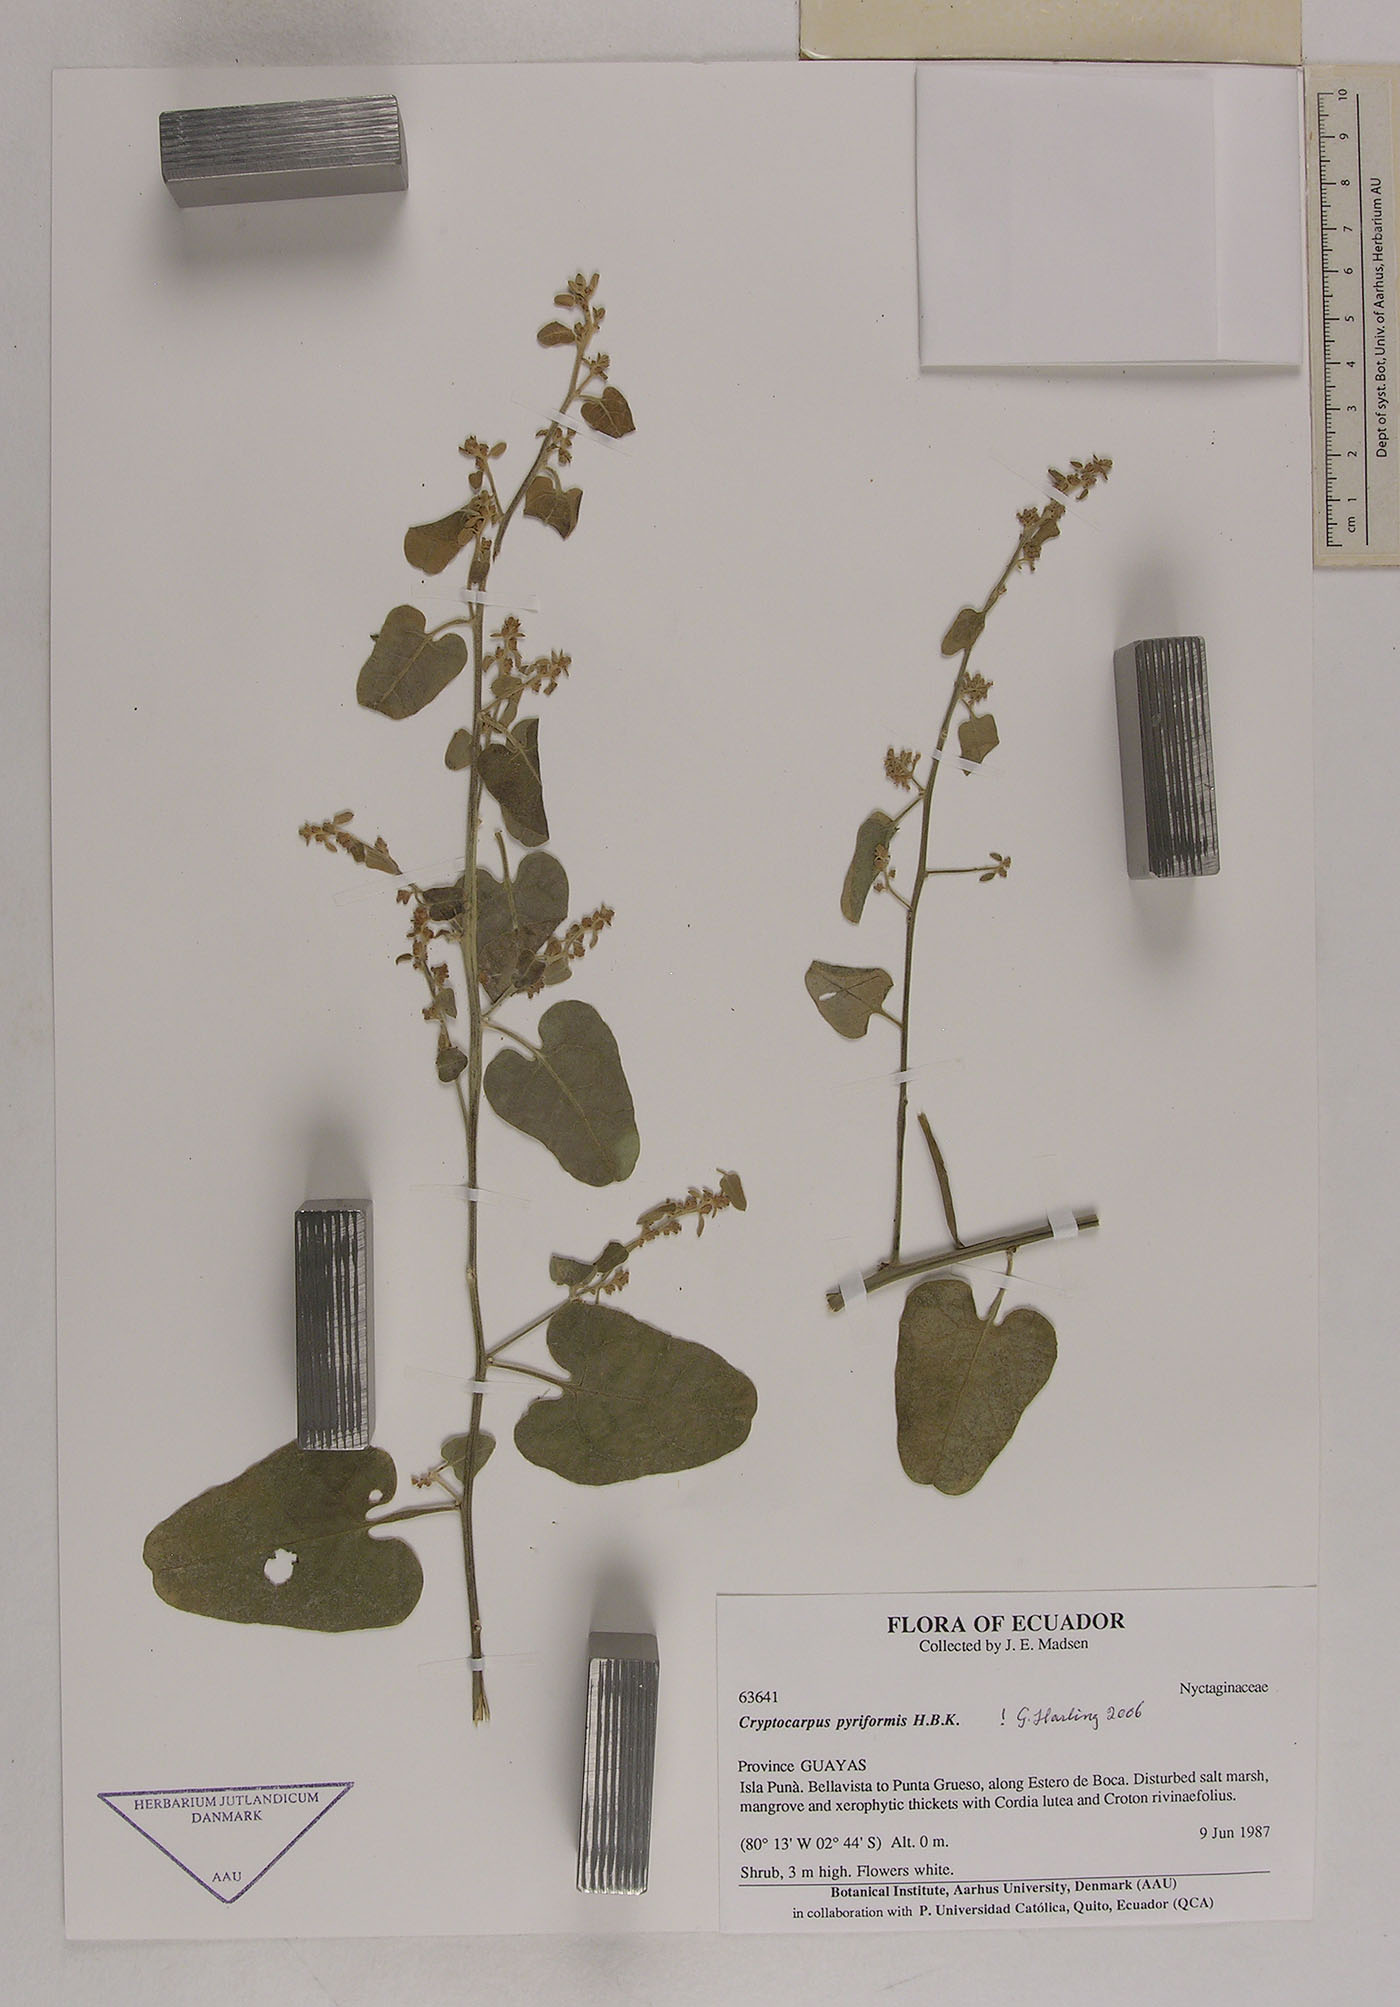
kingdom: Plantae
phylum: Tracheophyta
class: Magnoliopsida
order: Caryophyllales
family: Nyctaginaceae
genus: Cryptocarpus
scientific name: Cryptocarpus pyriformis
